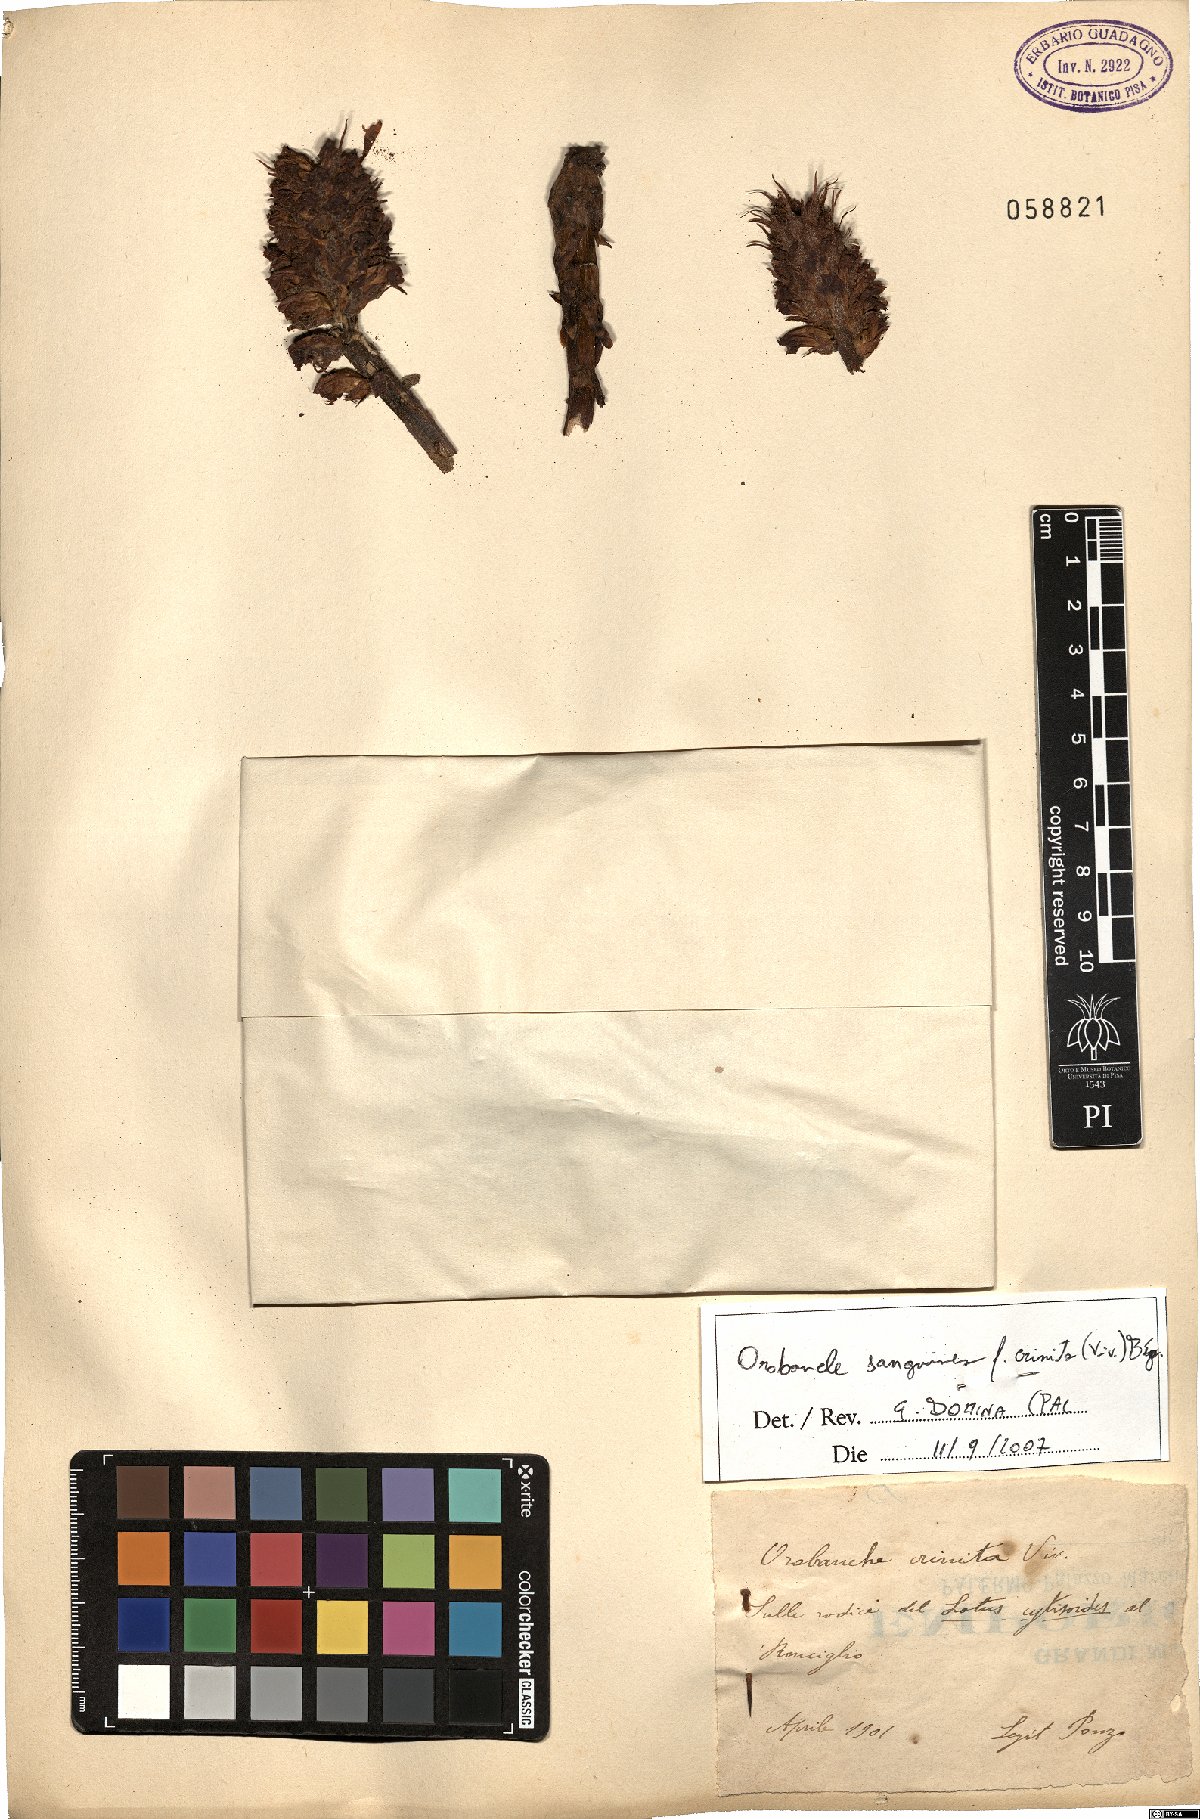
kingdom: Plantae
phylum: Tracheophyta
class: Magnoliopsida
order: Lamiales
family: Orobanchaceae
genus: Orobanche
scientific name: Orobanche sanguinea
